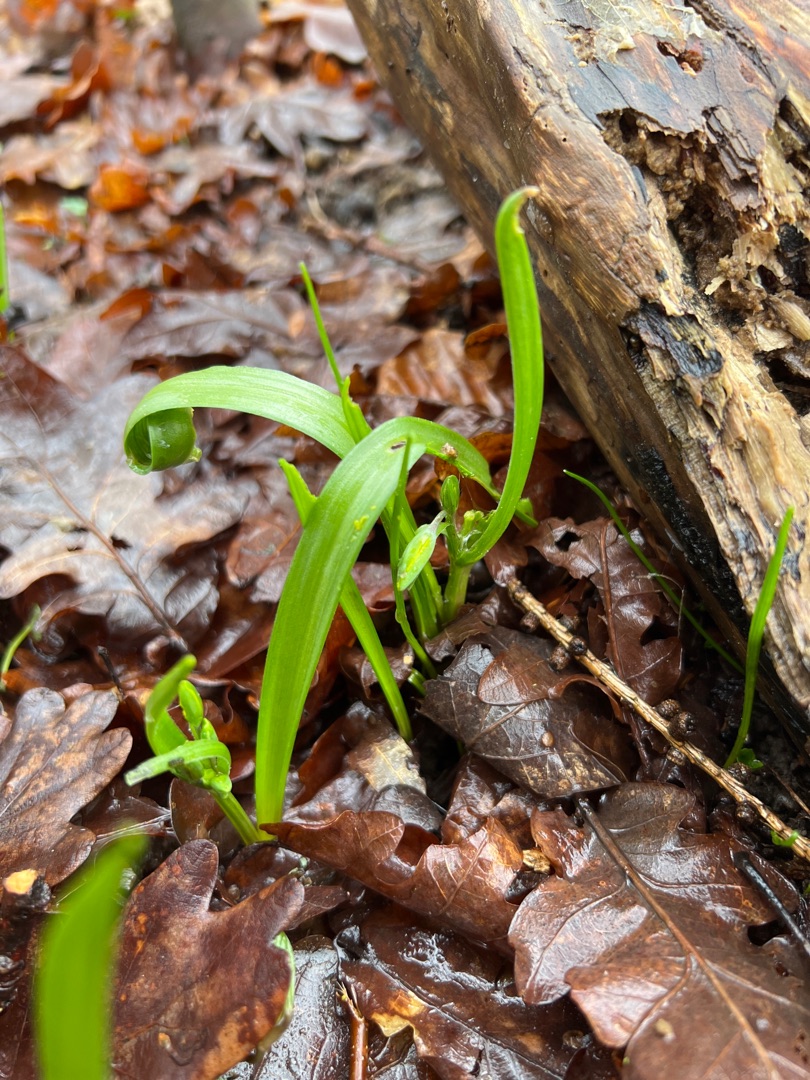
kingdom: Plantae
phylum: Tracheophyta
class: Liliopsida
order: Liliales
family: Liliaceae
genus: Gagea
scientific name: Gagea lutea
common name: Almindelig guldstjerne
